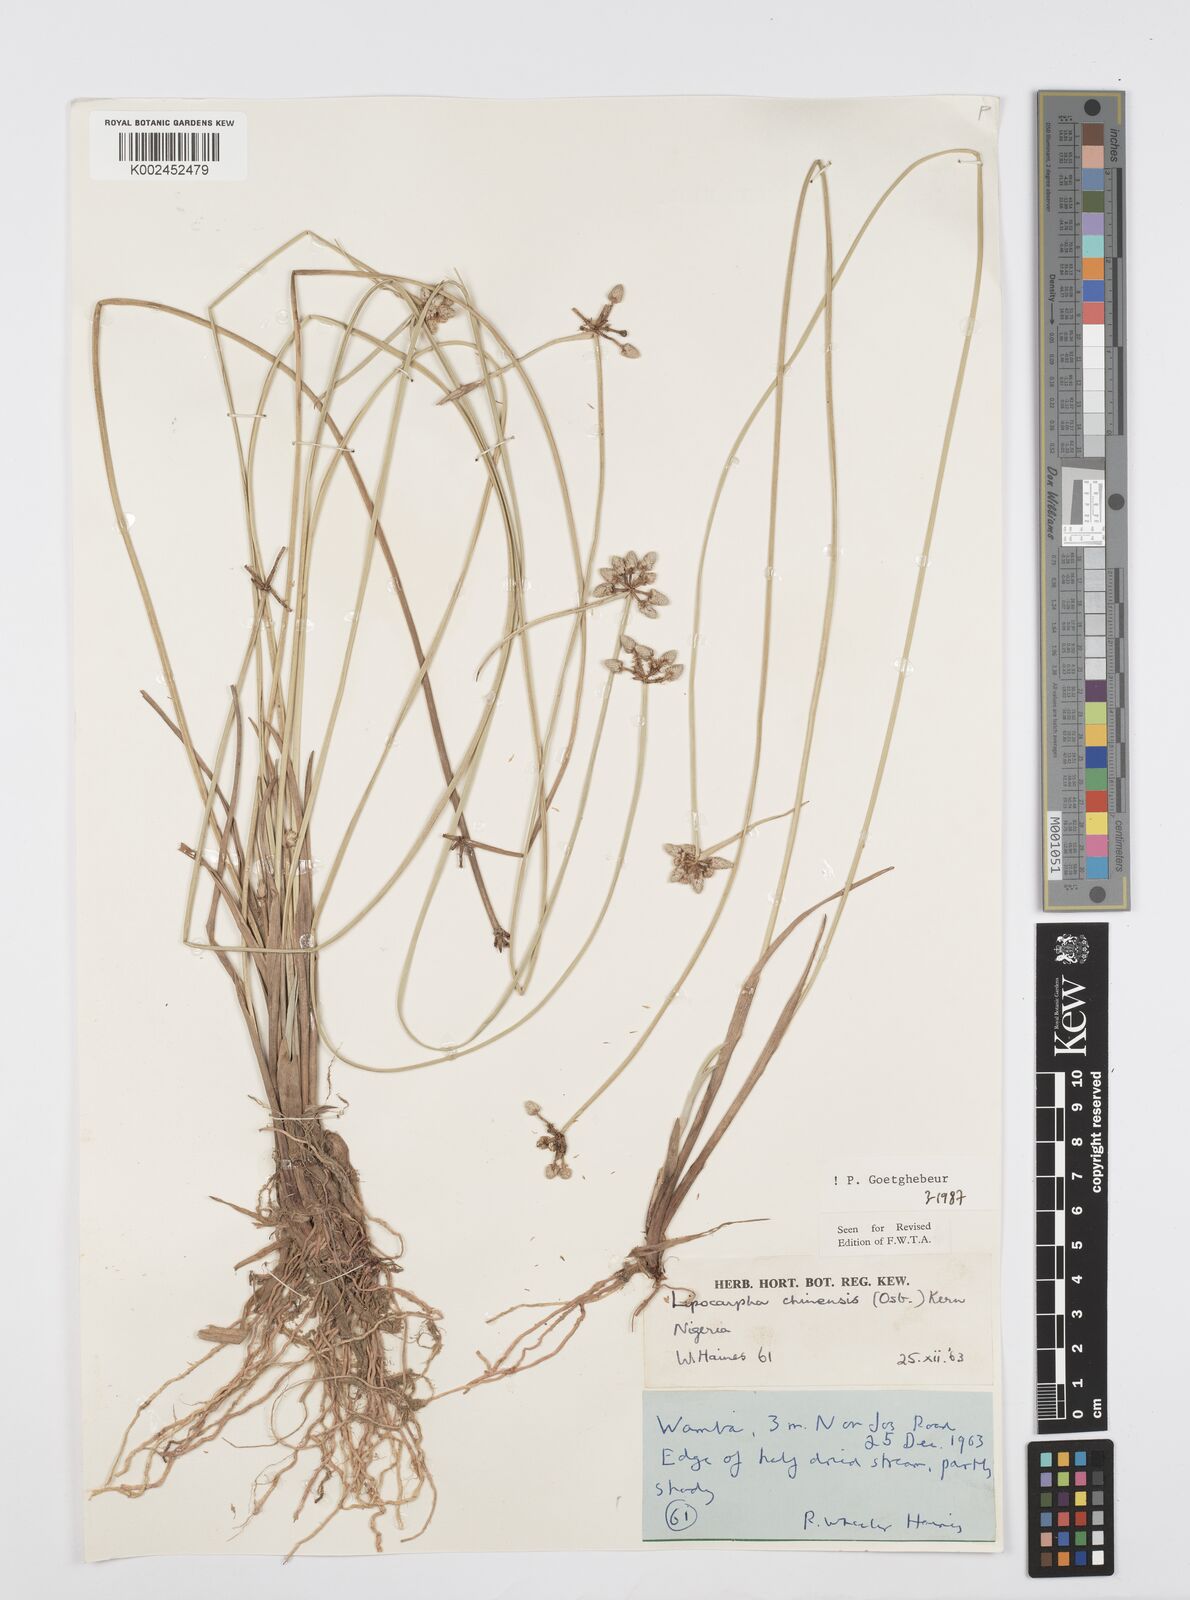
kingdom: Plantae
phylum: Tracheophyta
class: Liliopsida
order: Poales
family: Cyperaceae
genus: Cyperus
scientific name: Cyperus albescens
